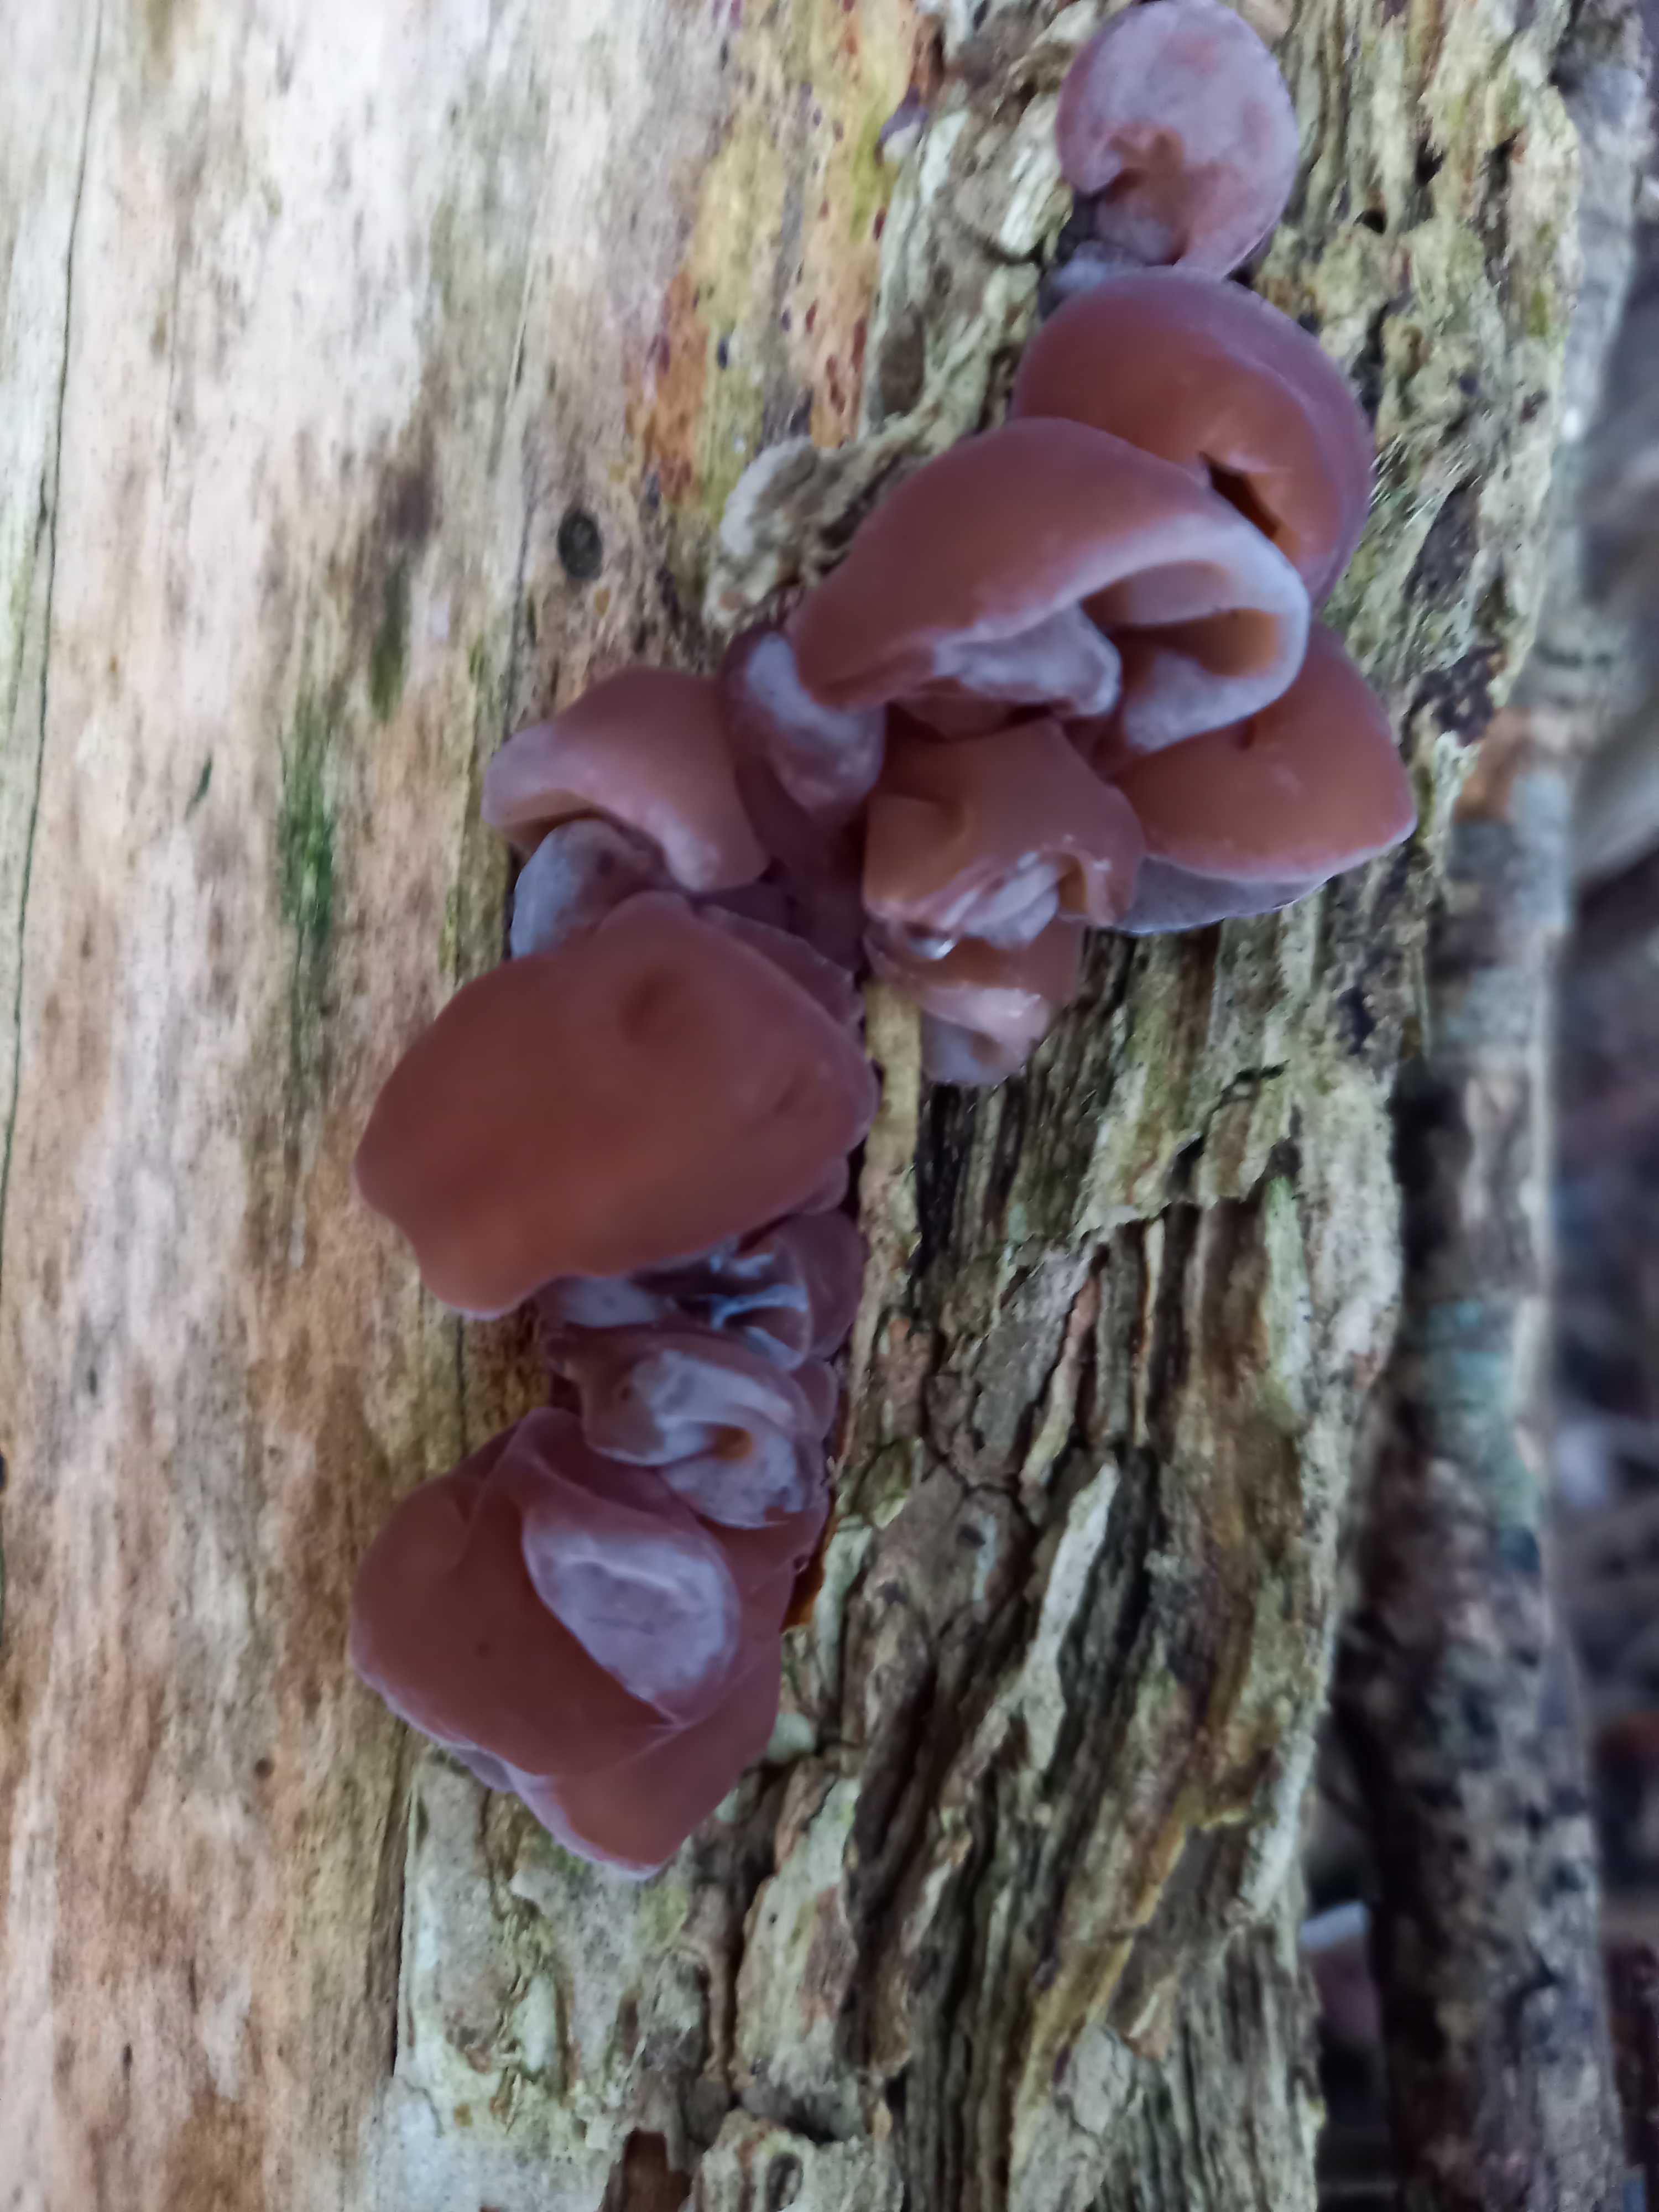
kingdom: Fungi
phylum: Basidiomycota
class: Agaricomycetes
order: Auriculariales
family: Auriculariaceae
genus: Auricularia
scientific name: Auricularia auricula-judae
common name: almindelig judasøre
